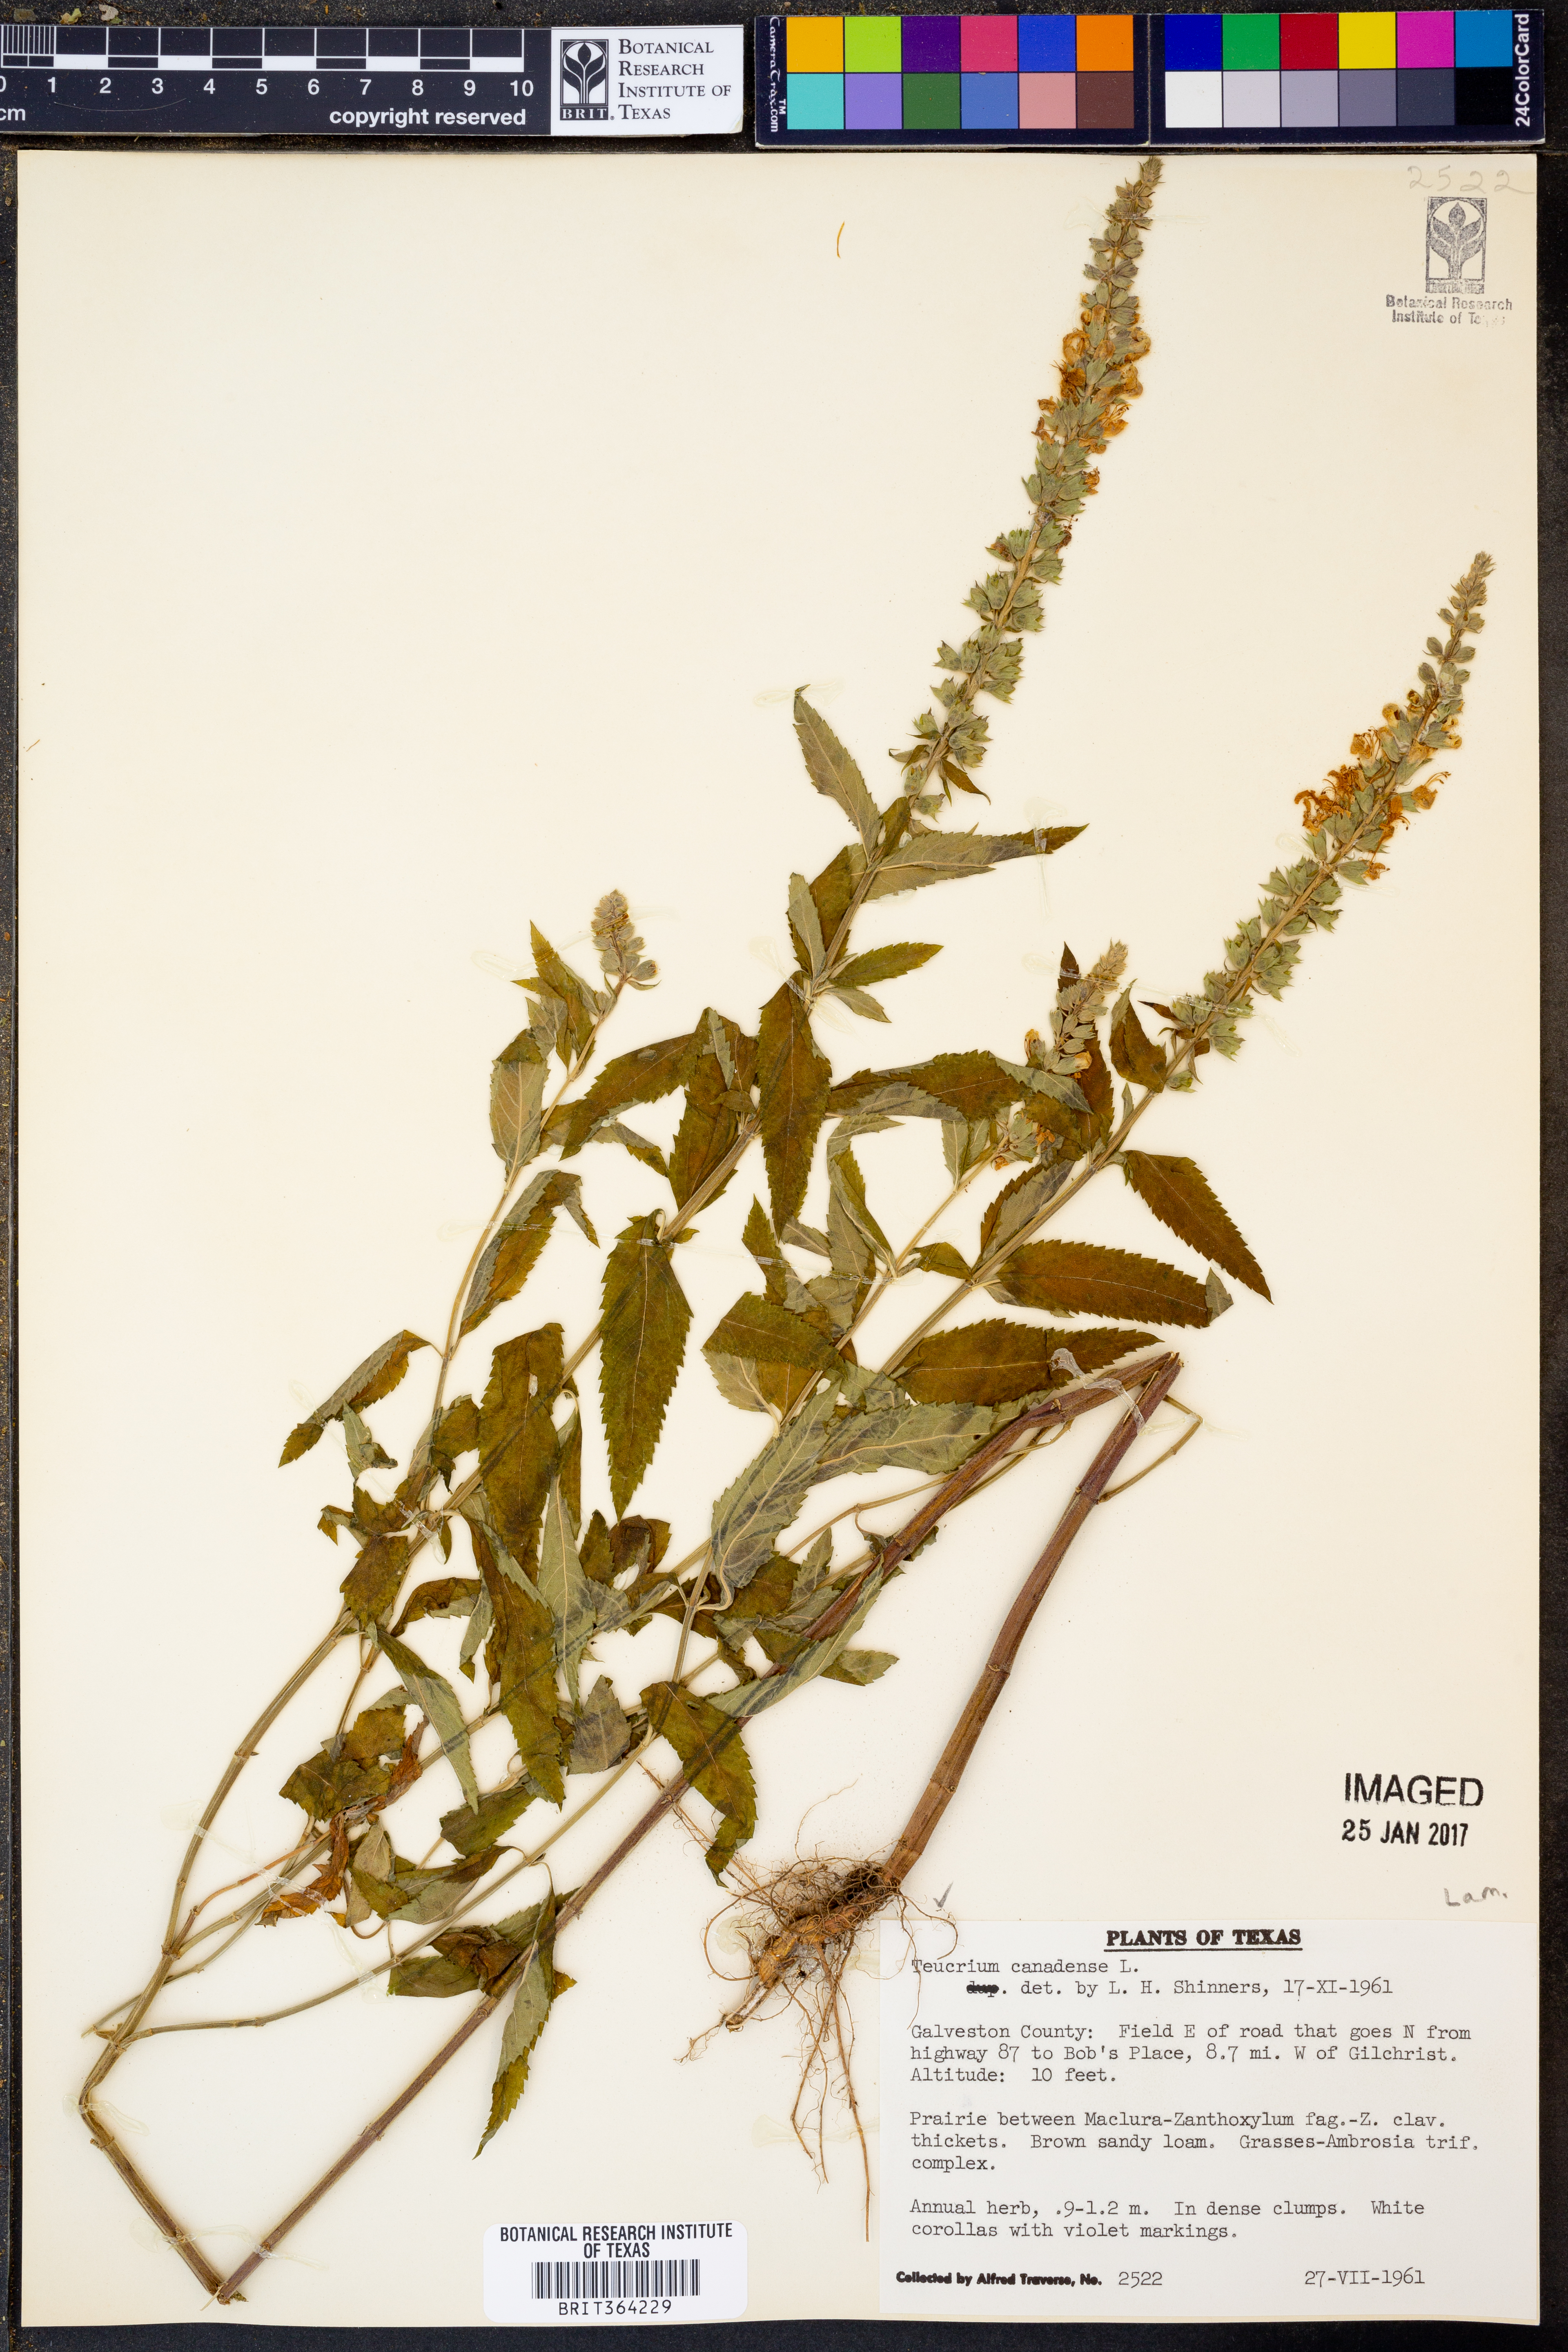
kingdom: Plantae
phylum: Tracheophyta
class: Magnoliopsida
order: Lamiales
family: Lamiaceae
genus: Teucrium
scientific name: Teucrium canadense
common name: American germander
